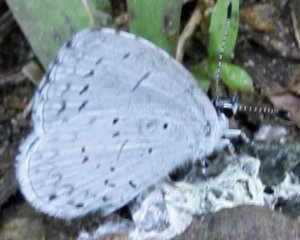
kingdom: Animalia
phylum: Arthropoda
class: Insecta
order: Lepidoptera
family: Lycaenidae
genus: Cyaniris
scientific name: Cyaniris neglecta
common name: Summer Azure
